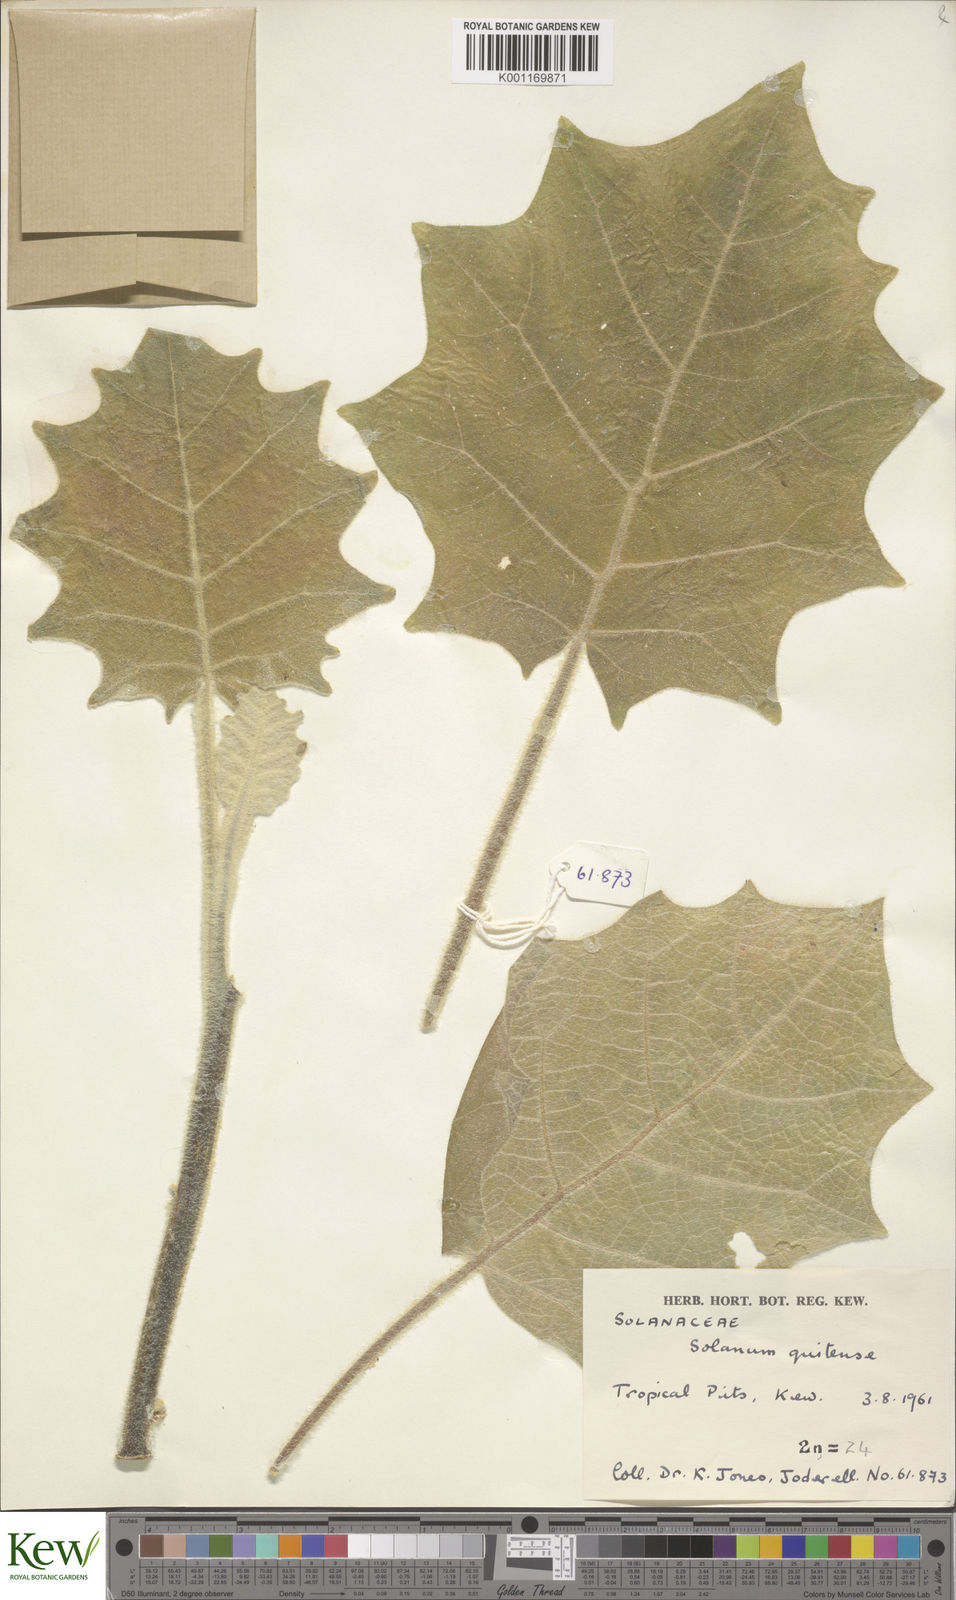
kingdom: Plantae
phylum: Tracheophyta
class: Magnoliopsida
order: Solanales
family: Solanaceae
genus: Solanum
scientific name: Solanum quitoense
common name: Quito-orange
